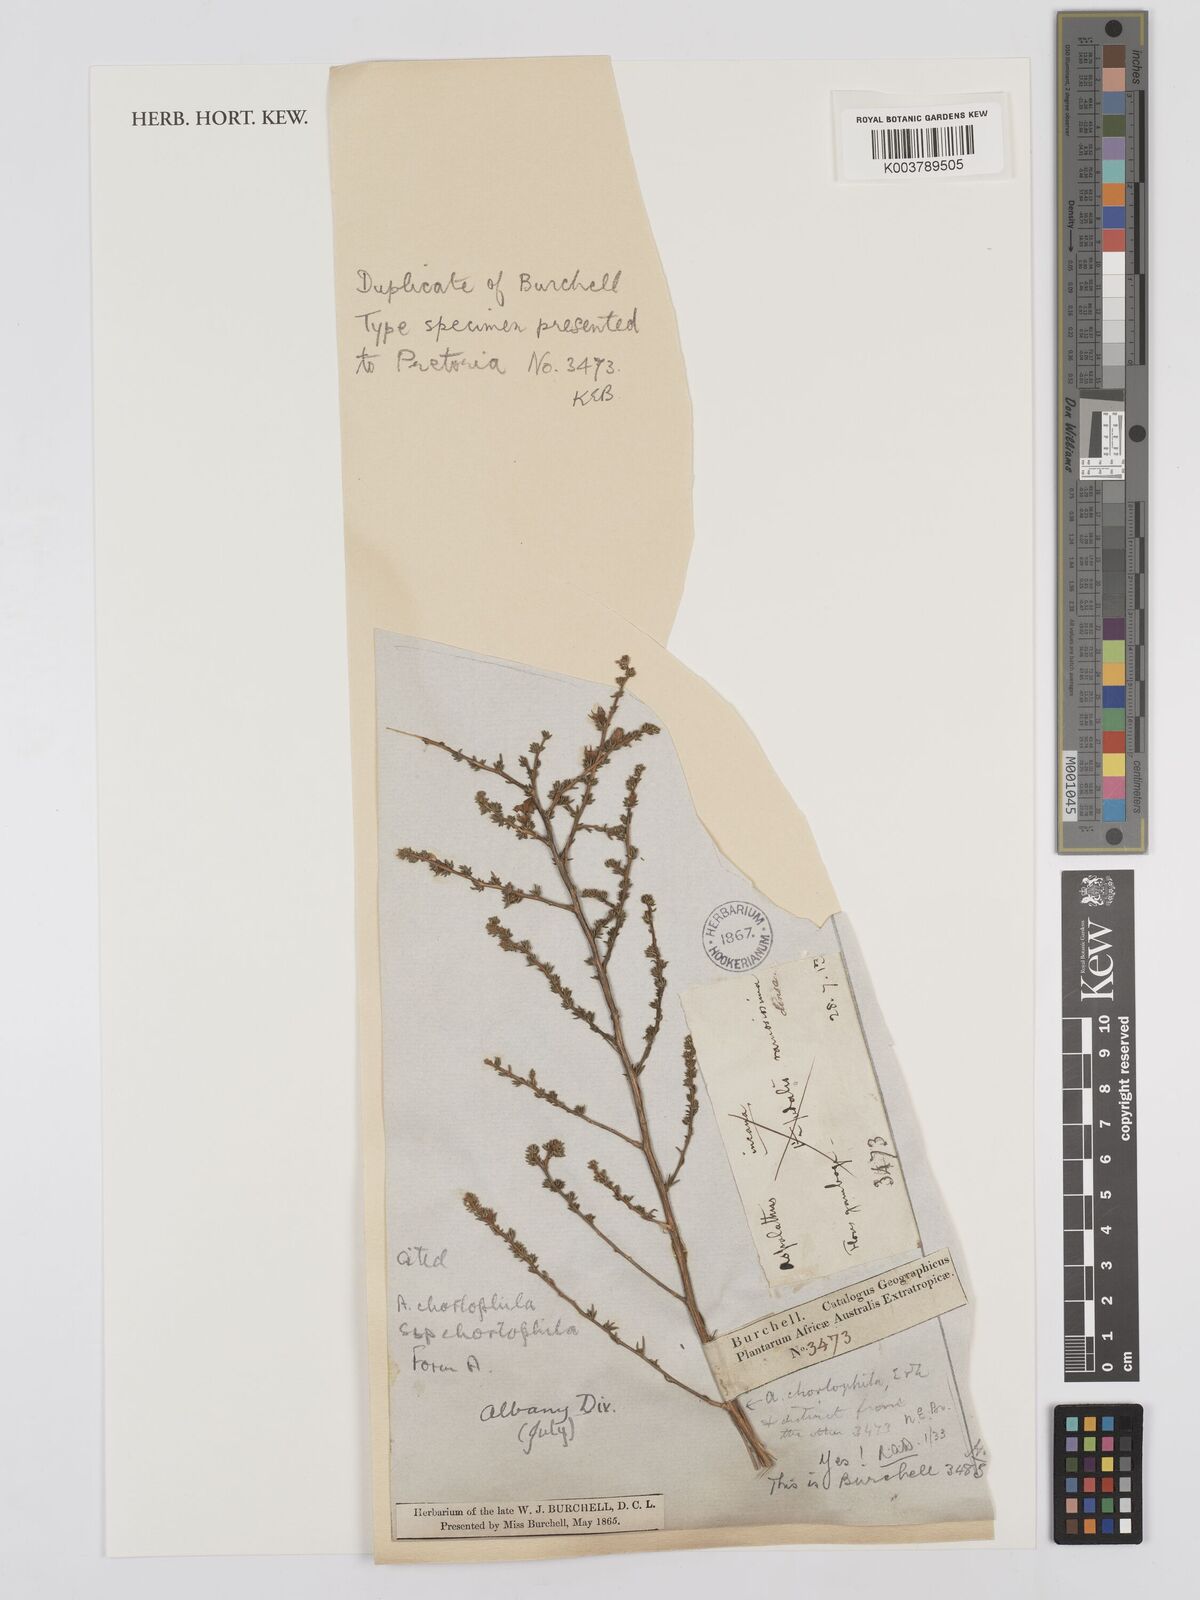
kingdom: Plantae
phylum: Tracheophyta
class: Magnoliopsida
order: Fabales
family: Fabaceae
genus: Aspalathus
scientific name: Aspalathus chortophila
